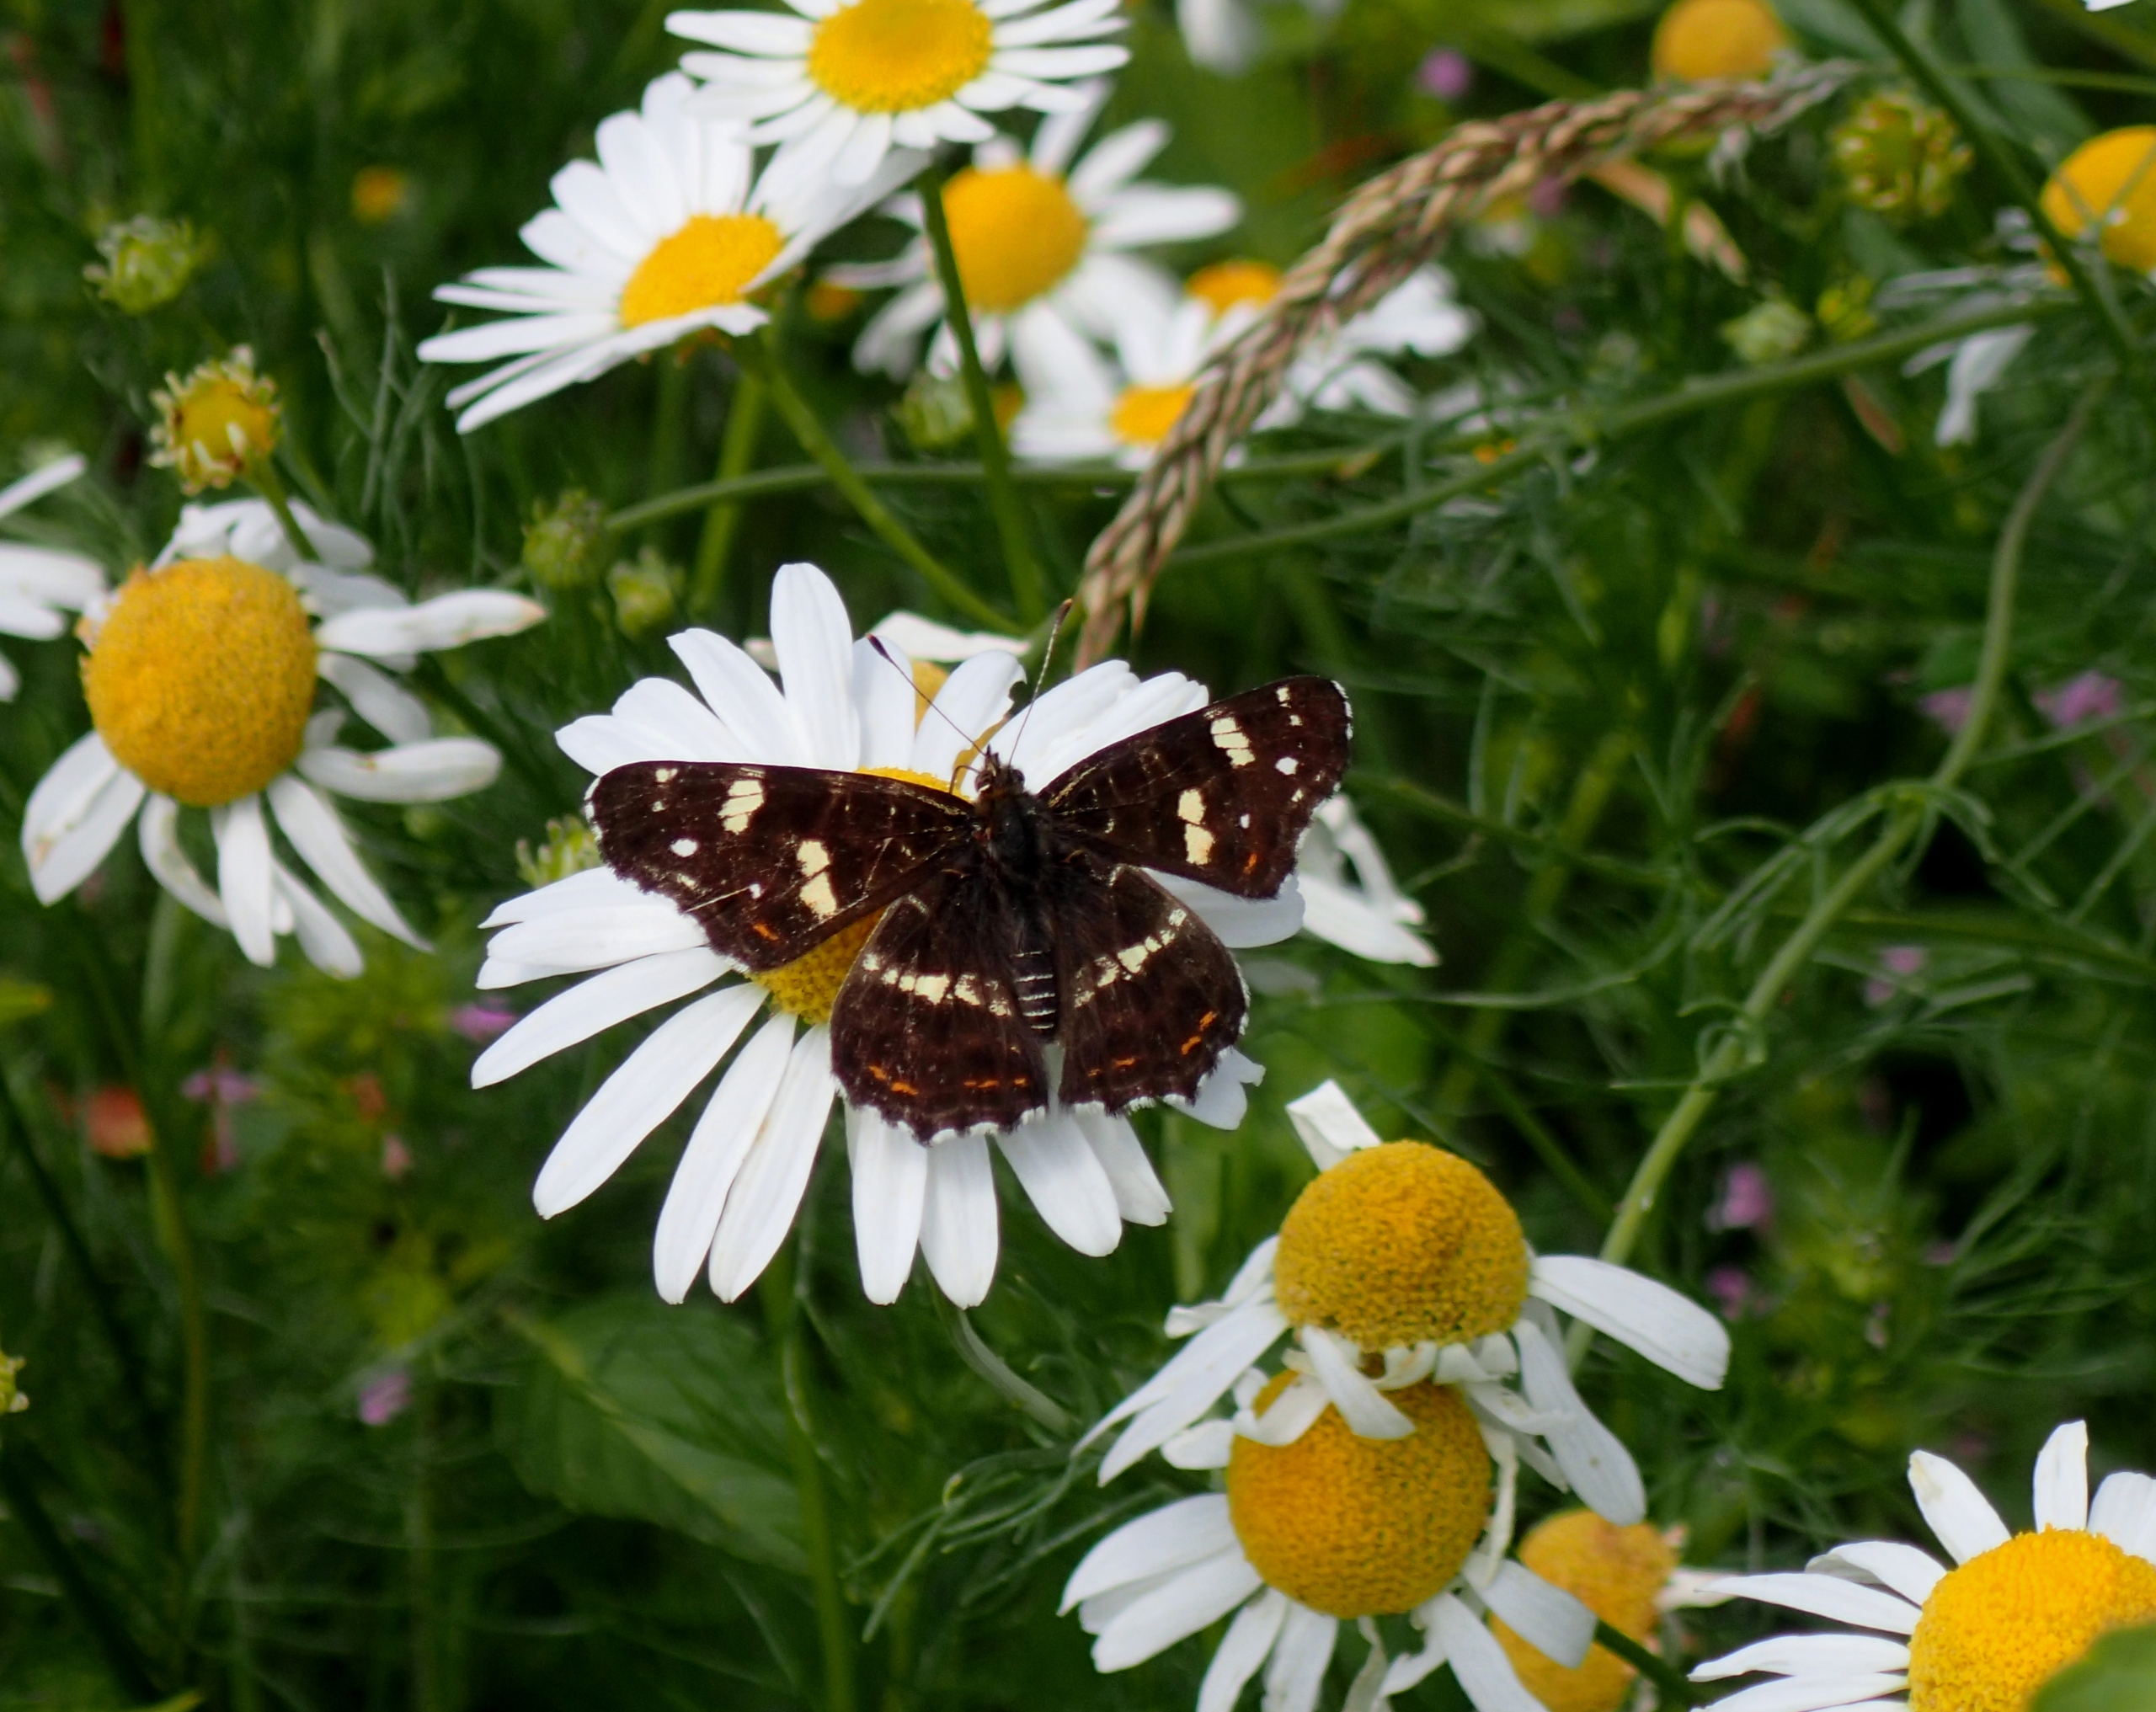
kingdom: Animalia
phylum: Arthropoda
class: Insecta
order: Lepidoptera
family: Nymphalidae
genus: Araschnia
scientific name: Araschnia levana
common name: Nældesommerfugl
